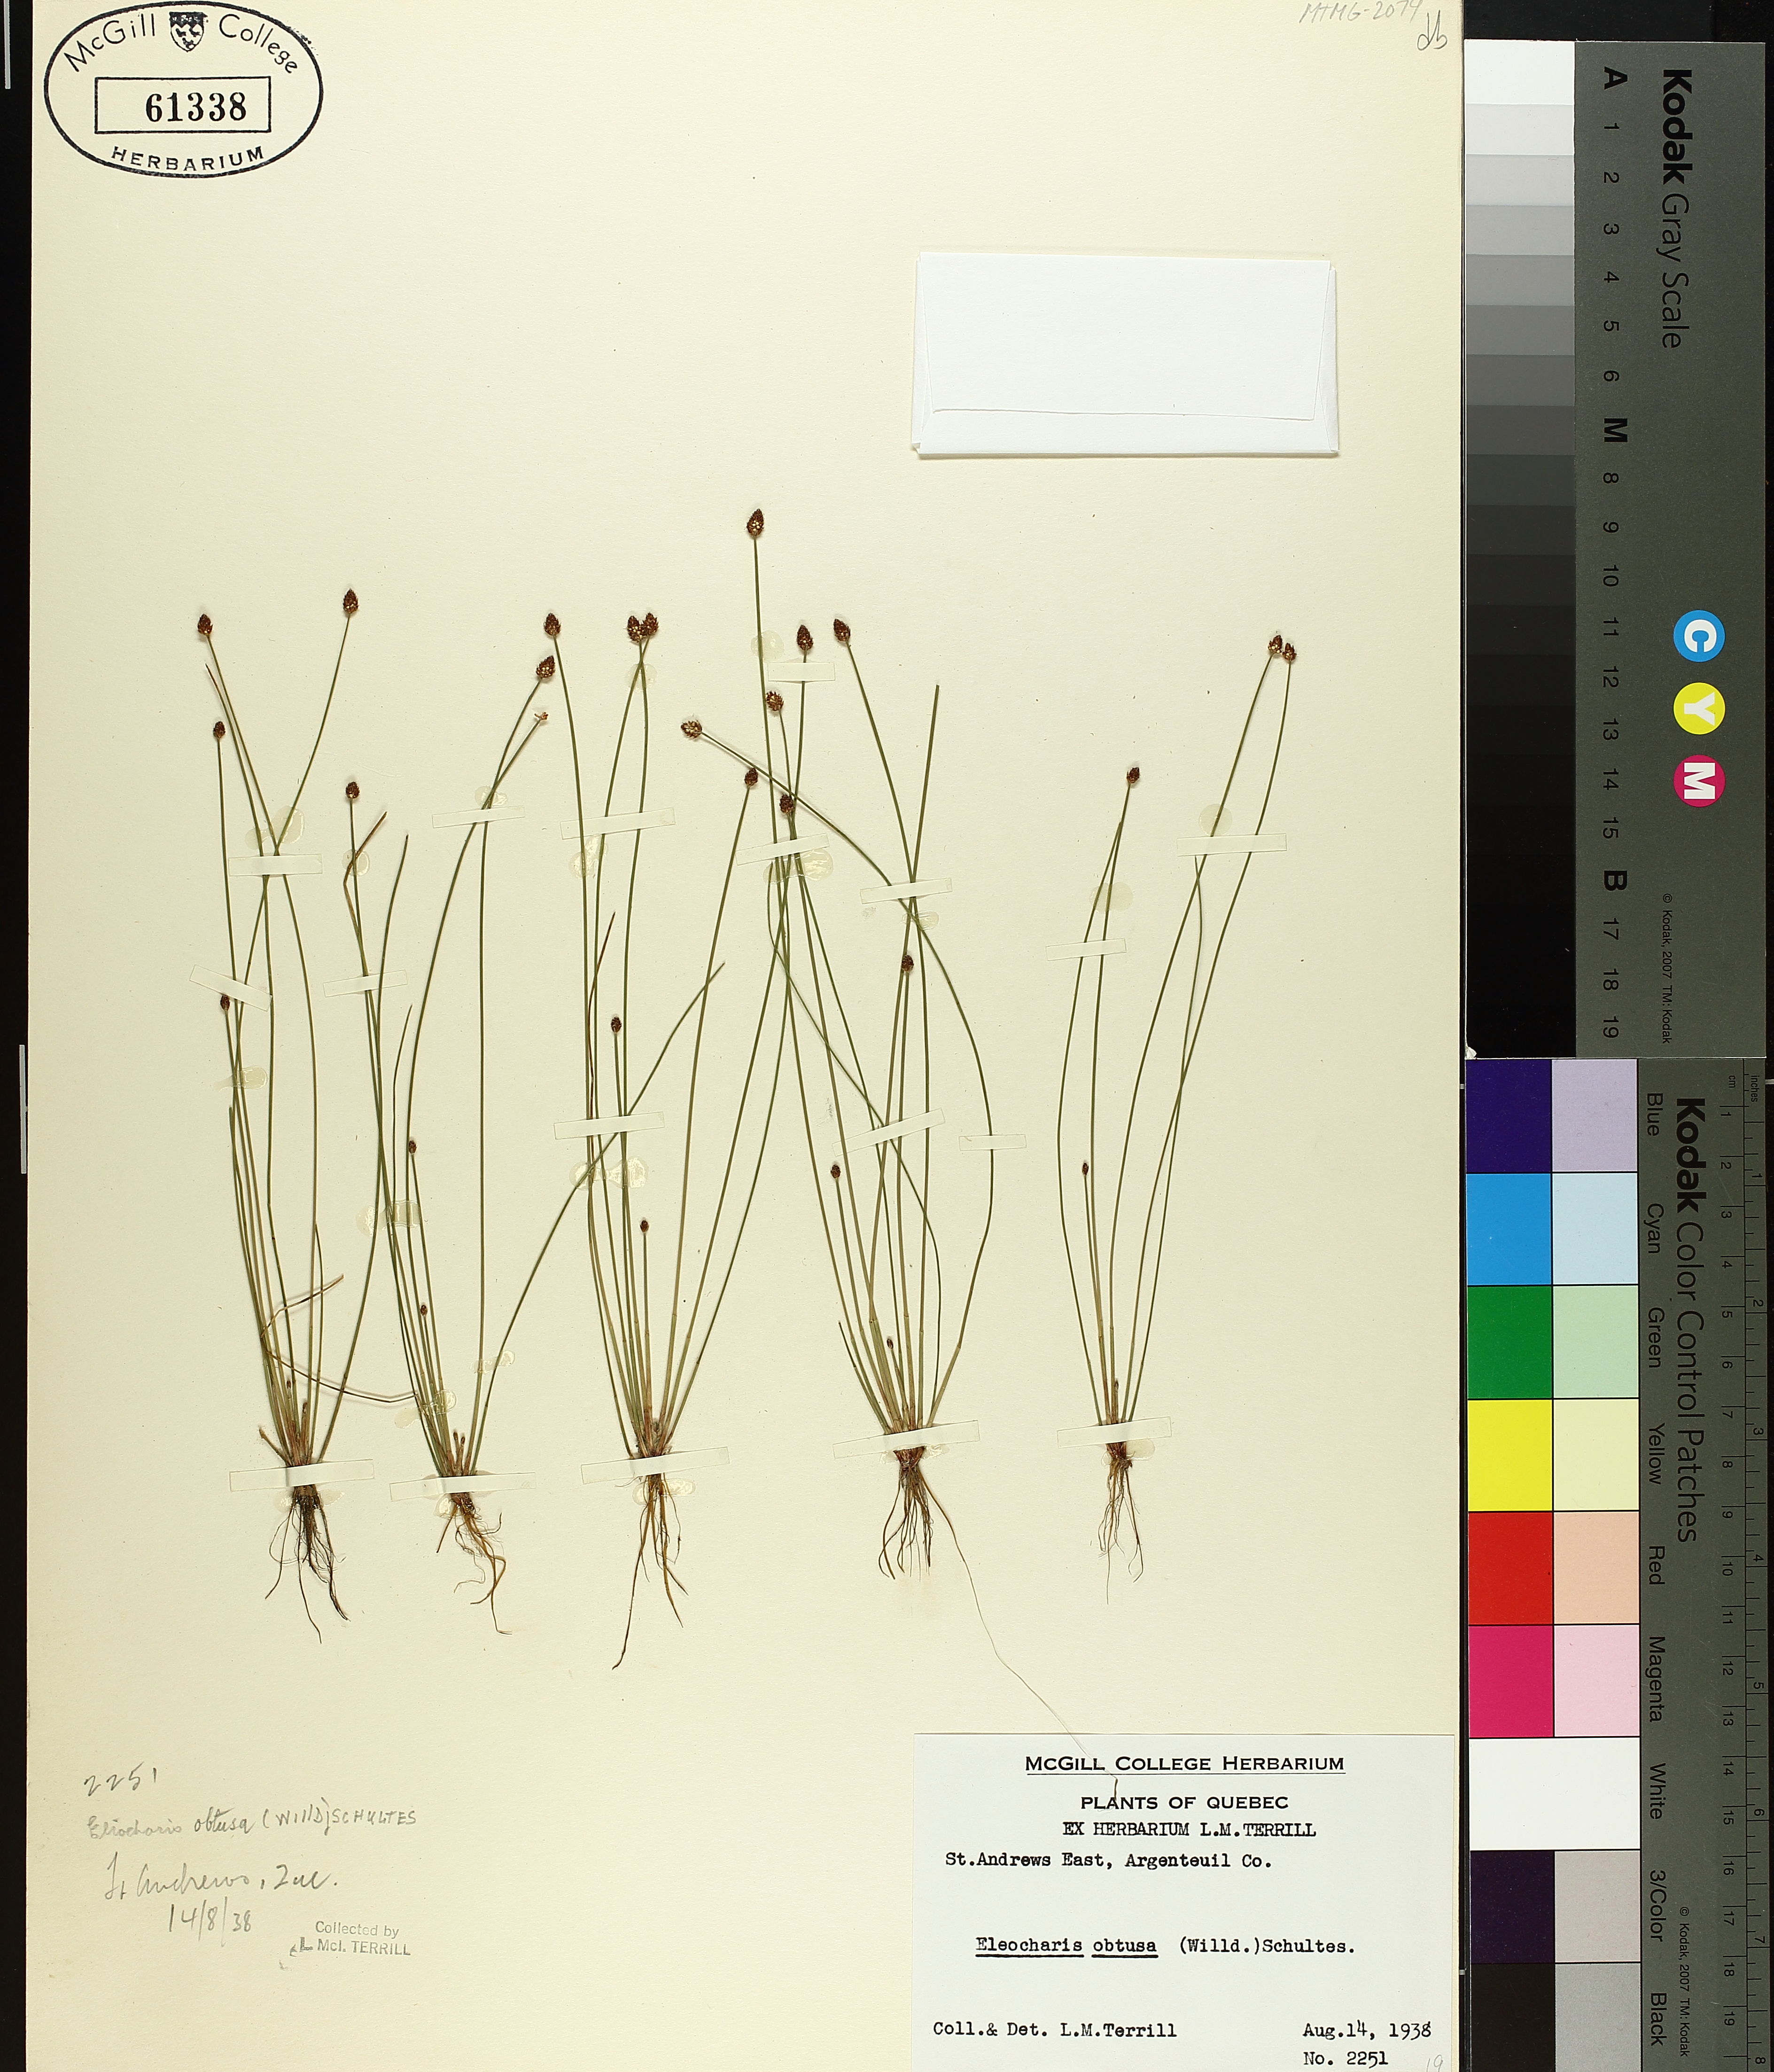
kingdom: Plantae
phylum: Tracheophyta
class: Liliopsida
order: Poales
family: Cyperaceae
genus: Eleocharis
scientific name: Eleocharis obtusa
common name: Blunt spikerush
